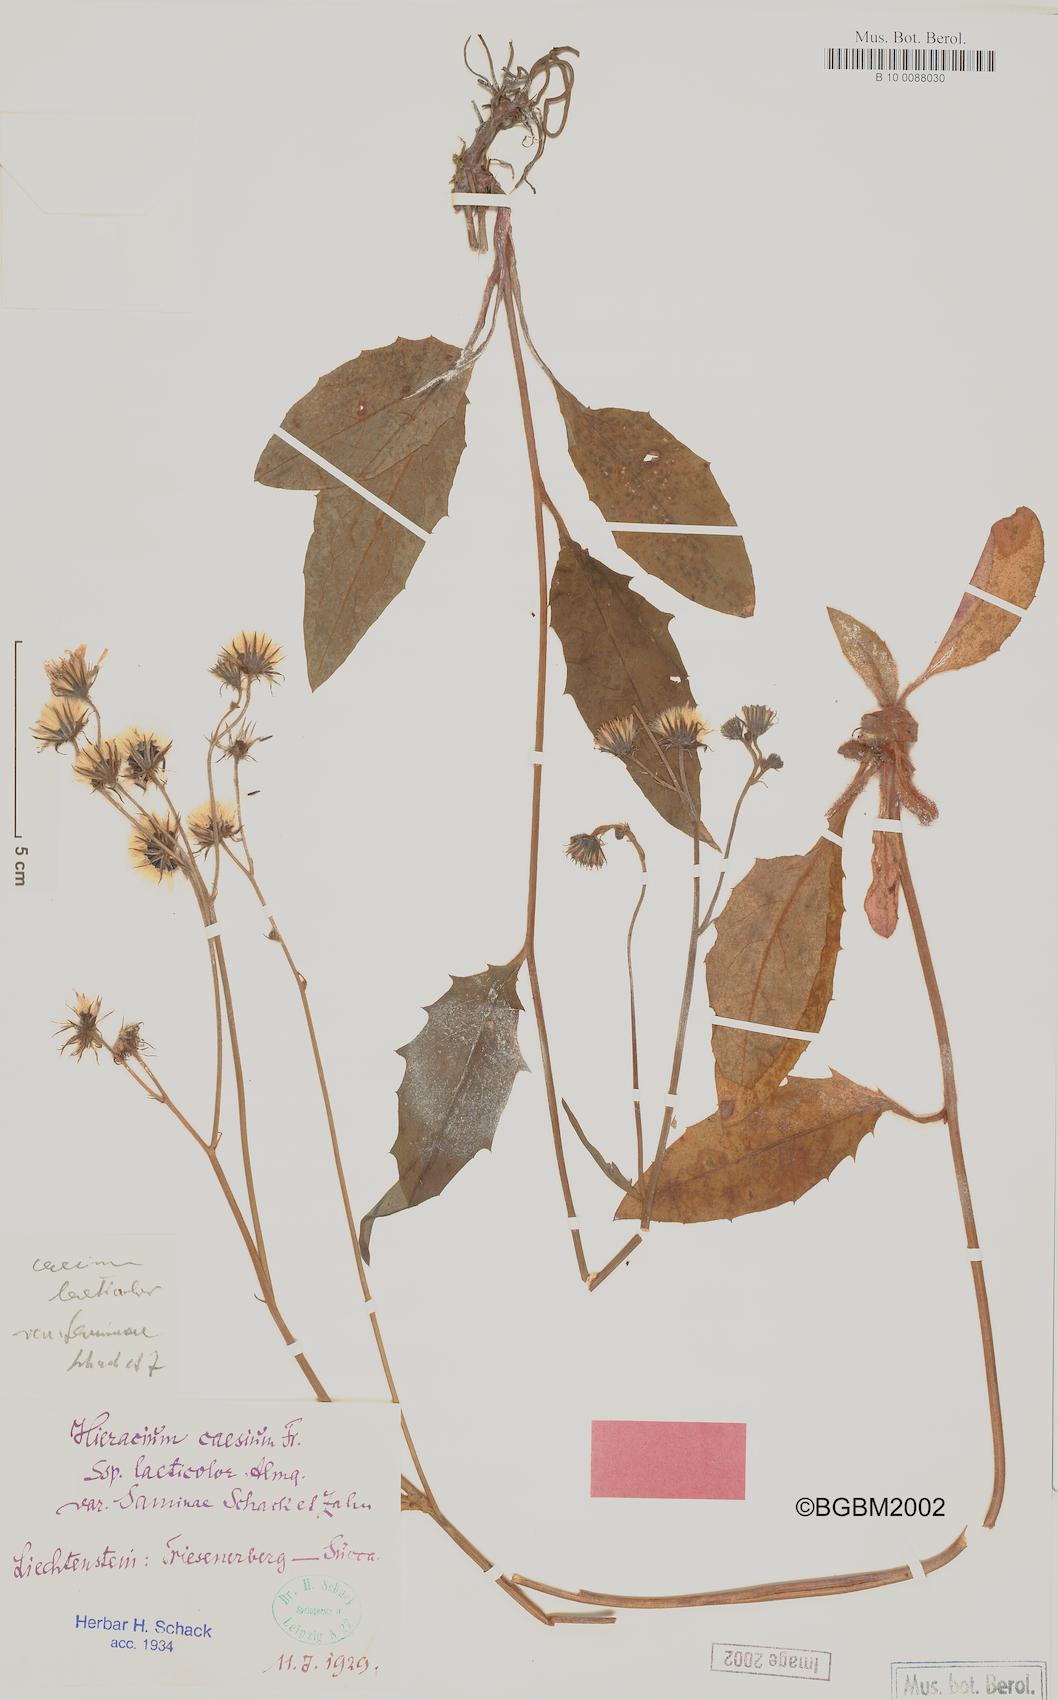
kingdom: Plantae
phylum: Tracheophyta
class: Magnoliopsida
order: Asterales
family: Asteraceae
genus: Hieracium
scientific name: Hieracium caesium
